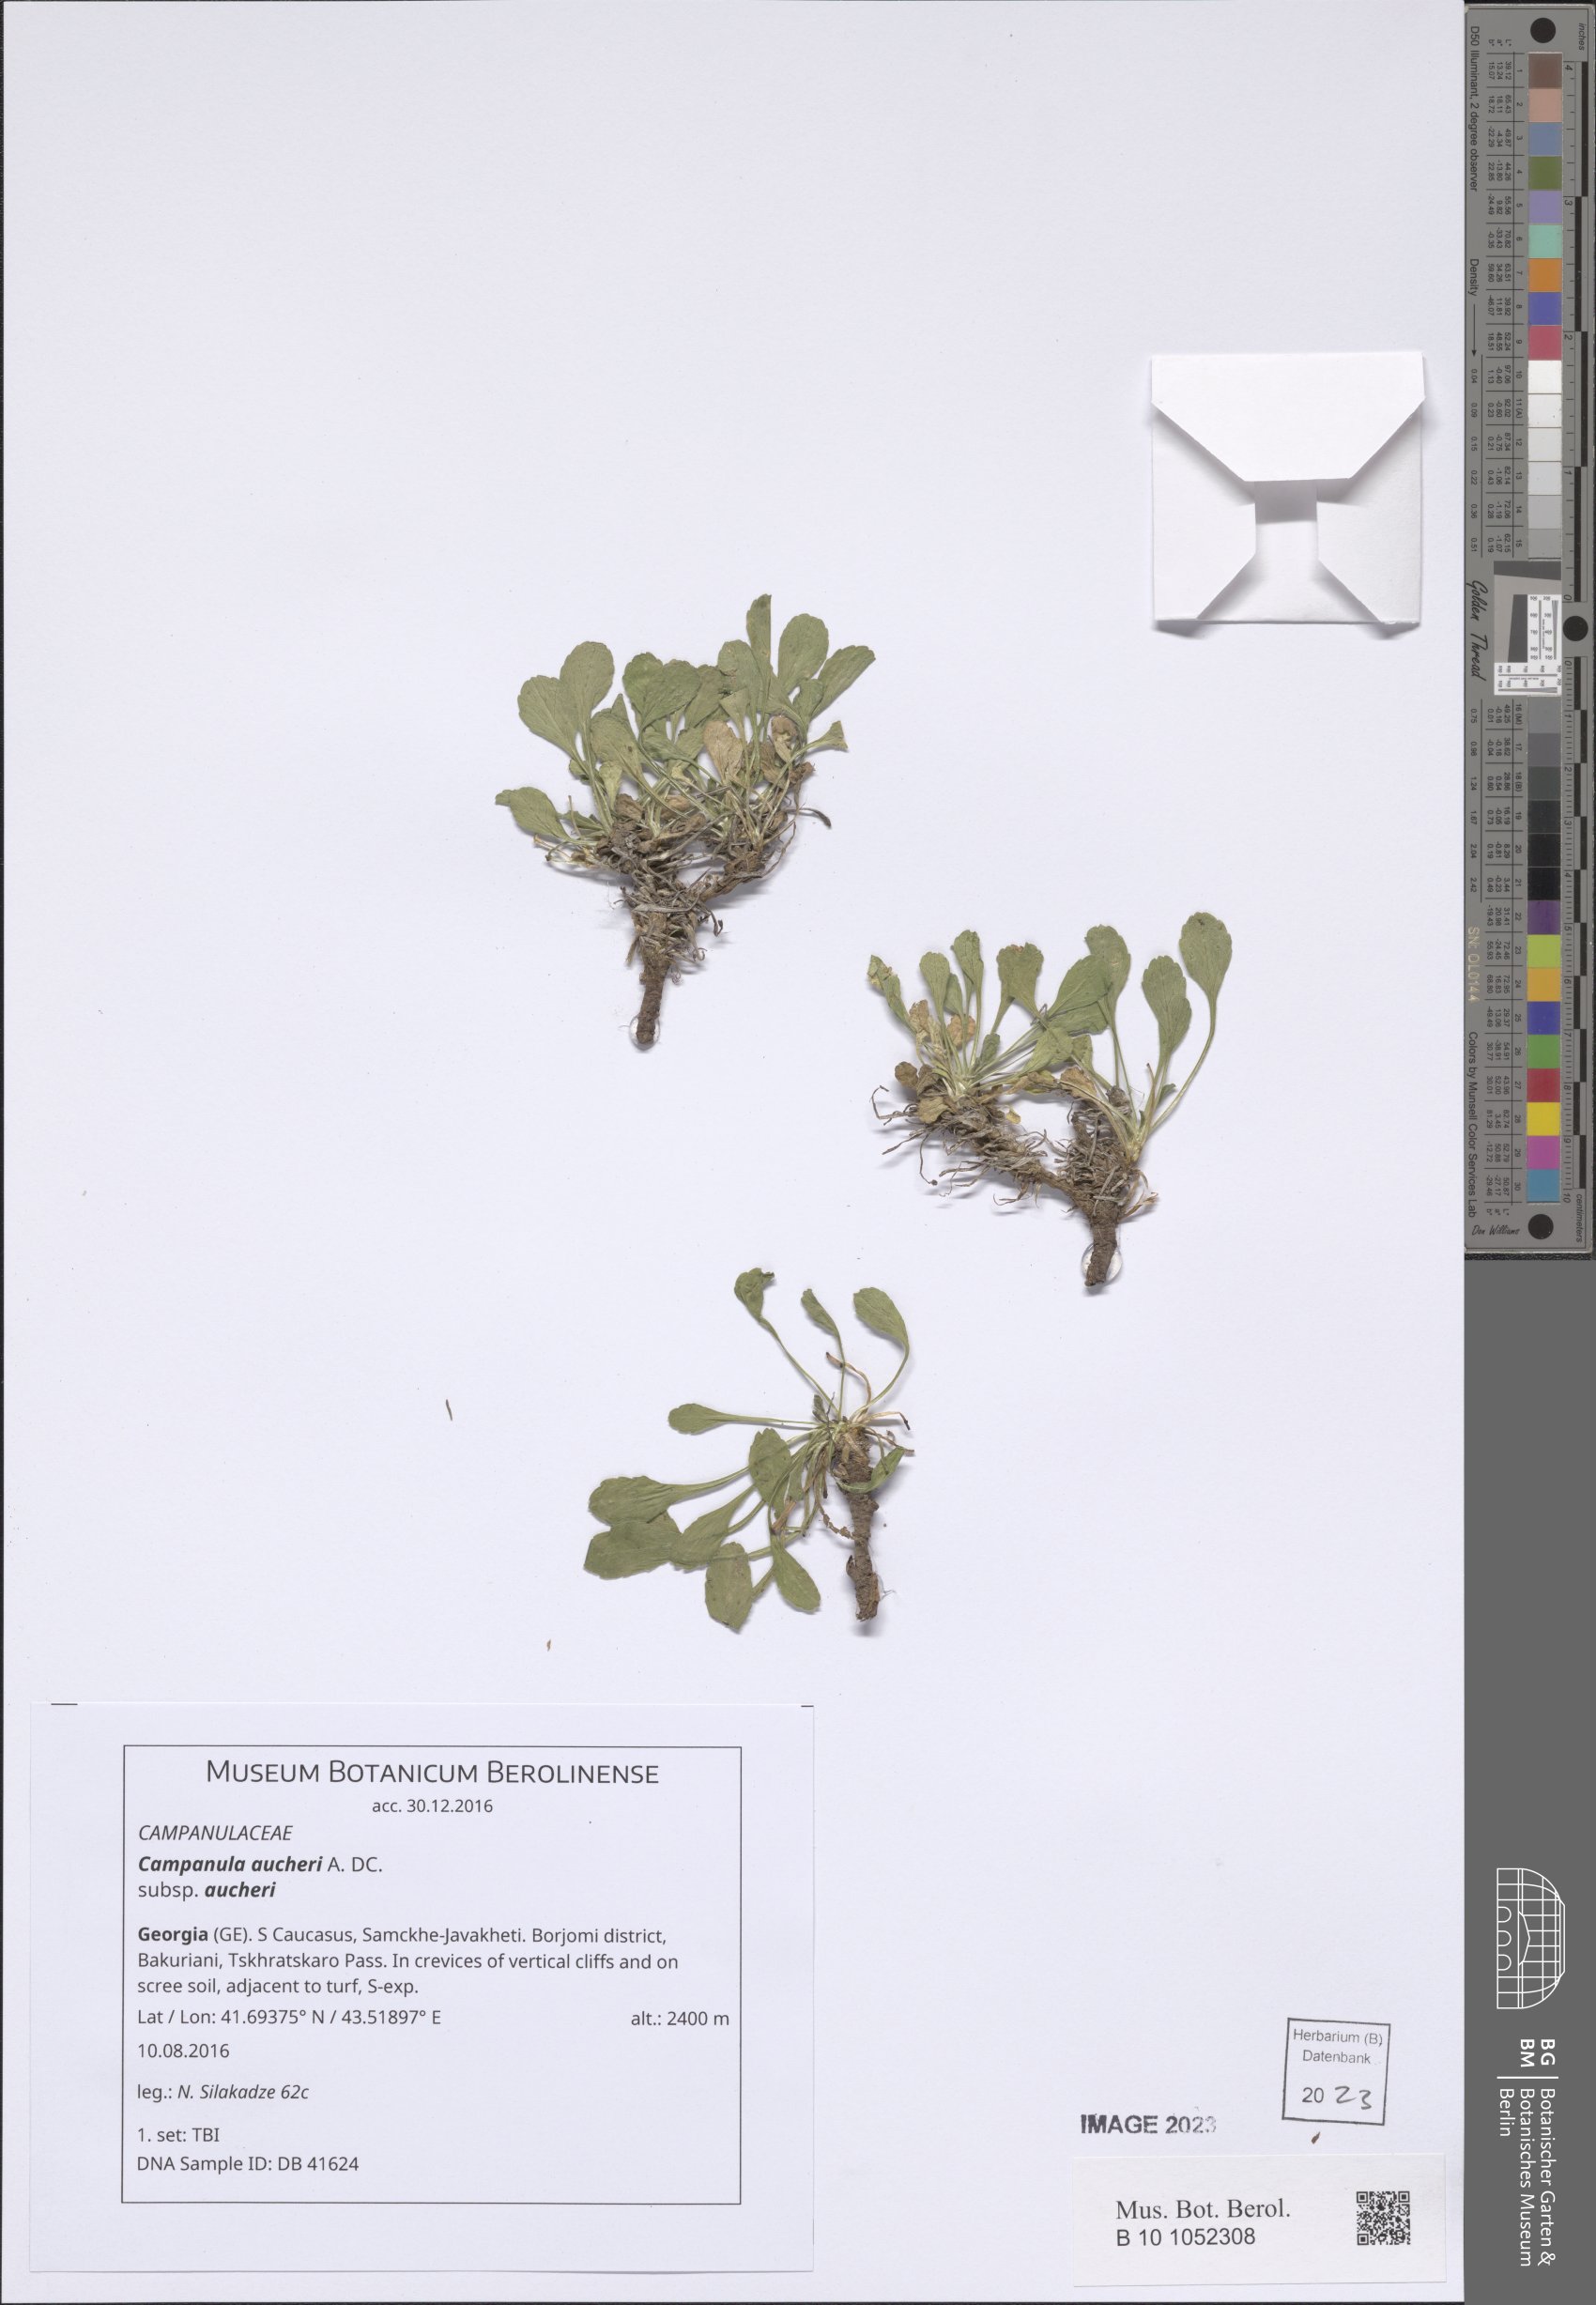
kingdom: Plantae
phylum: Tracheophyta
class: Magnoliopsida
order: Asterales
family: Campanulaceae
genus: Campanula
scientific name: Campanula saxifraga
